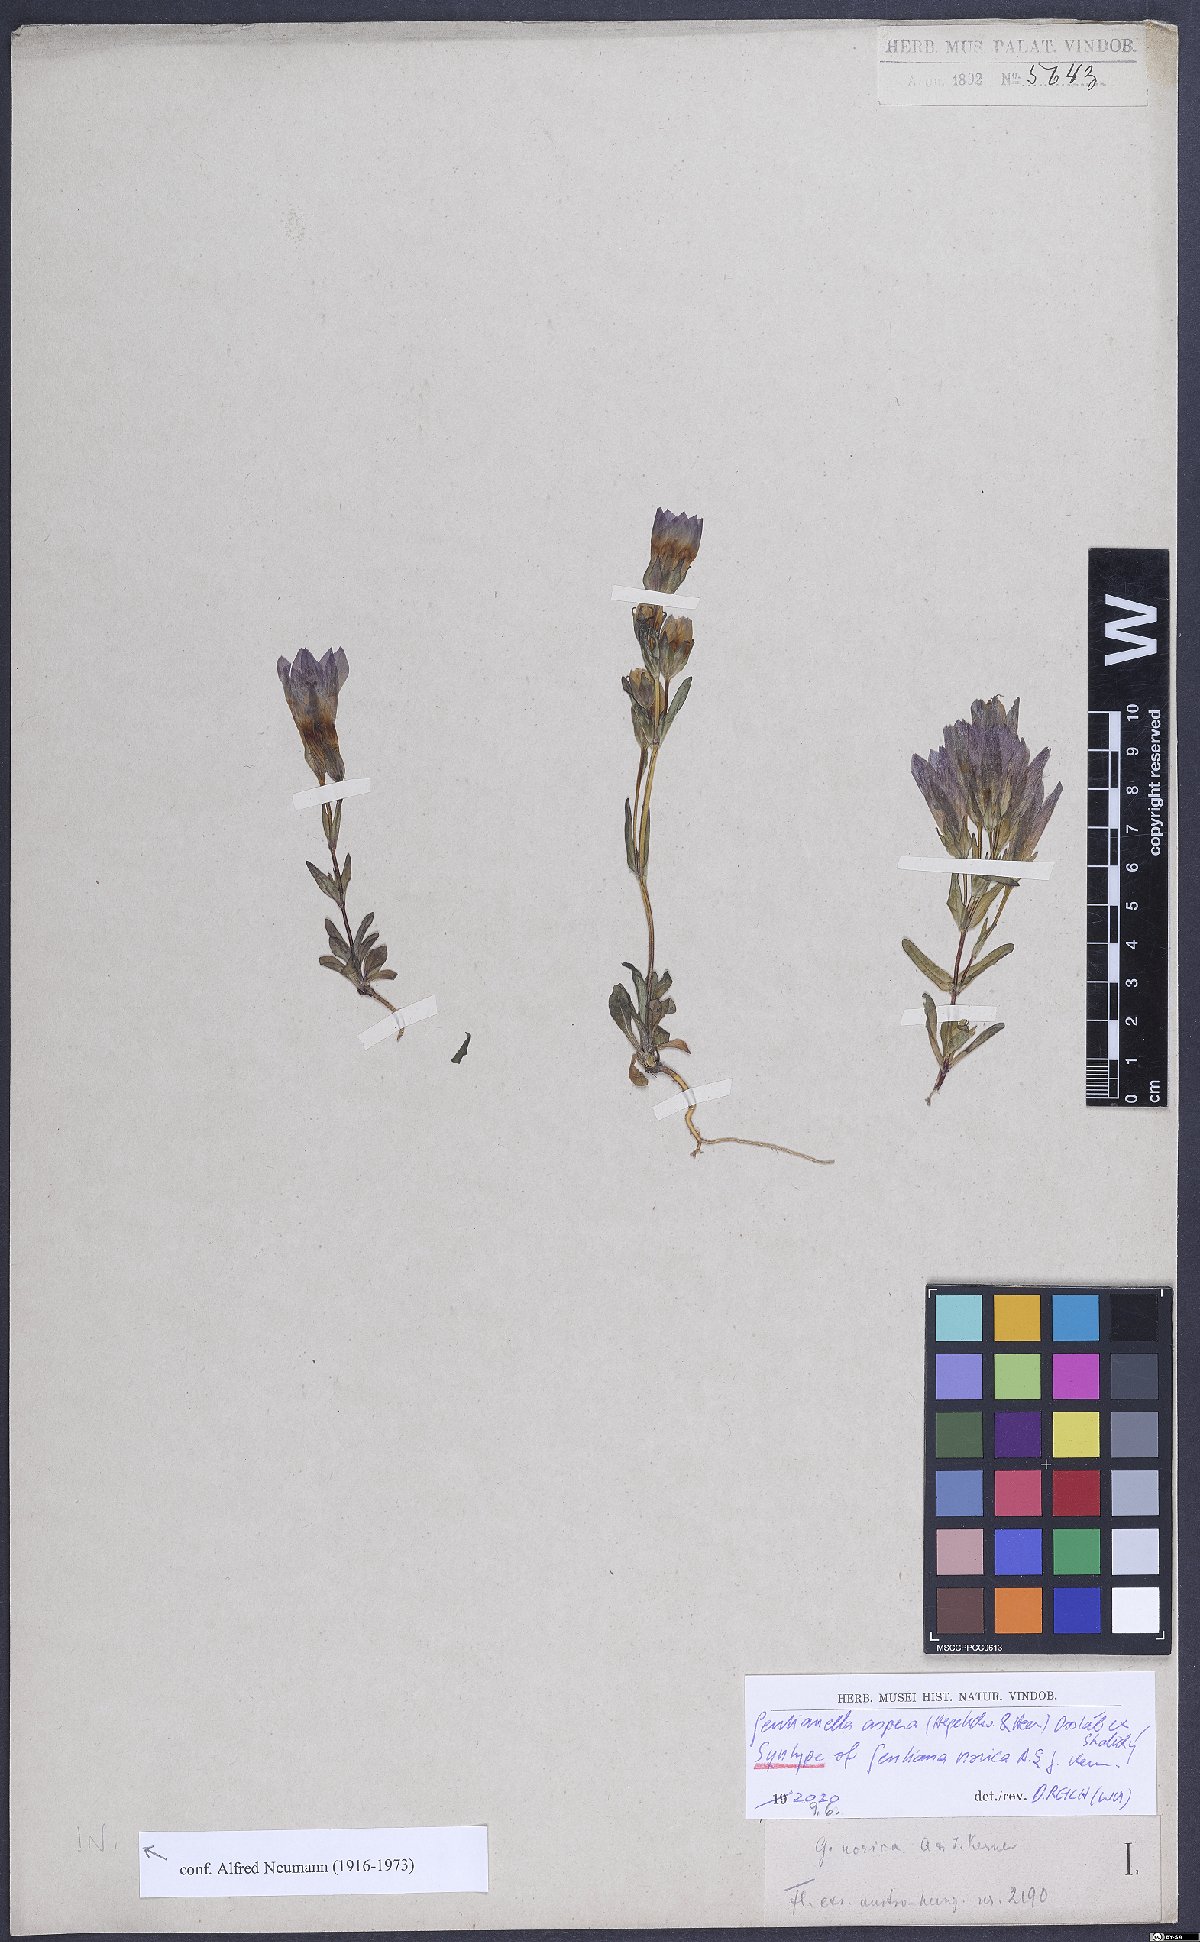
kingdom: Plantae
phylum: Tracheophyta
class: Magnoliopsida
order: Gentianales
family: Gentianaceae
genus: Gentianella
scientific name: Gentianella obtusifolia
